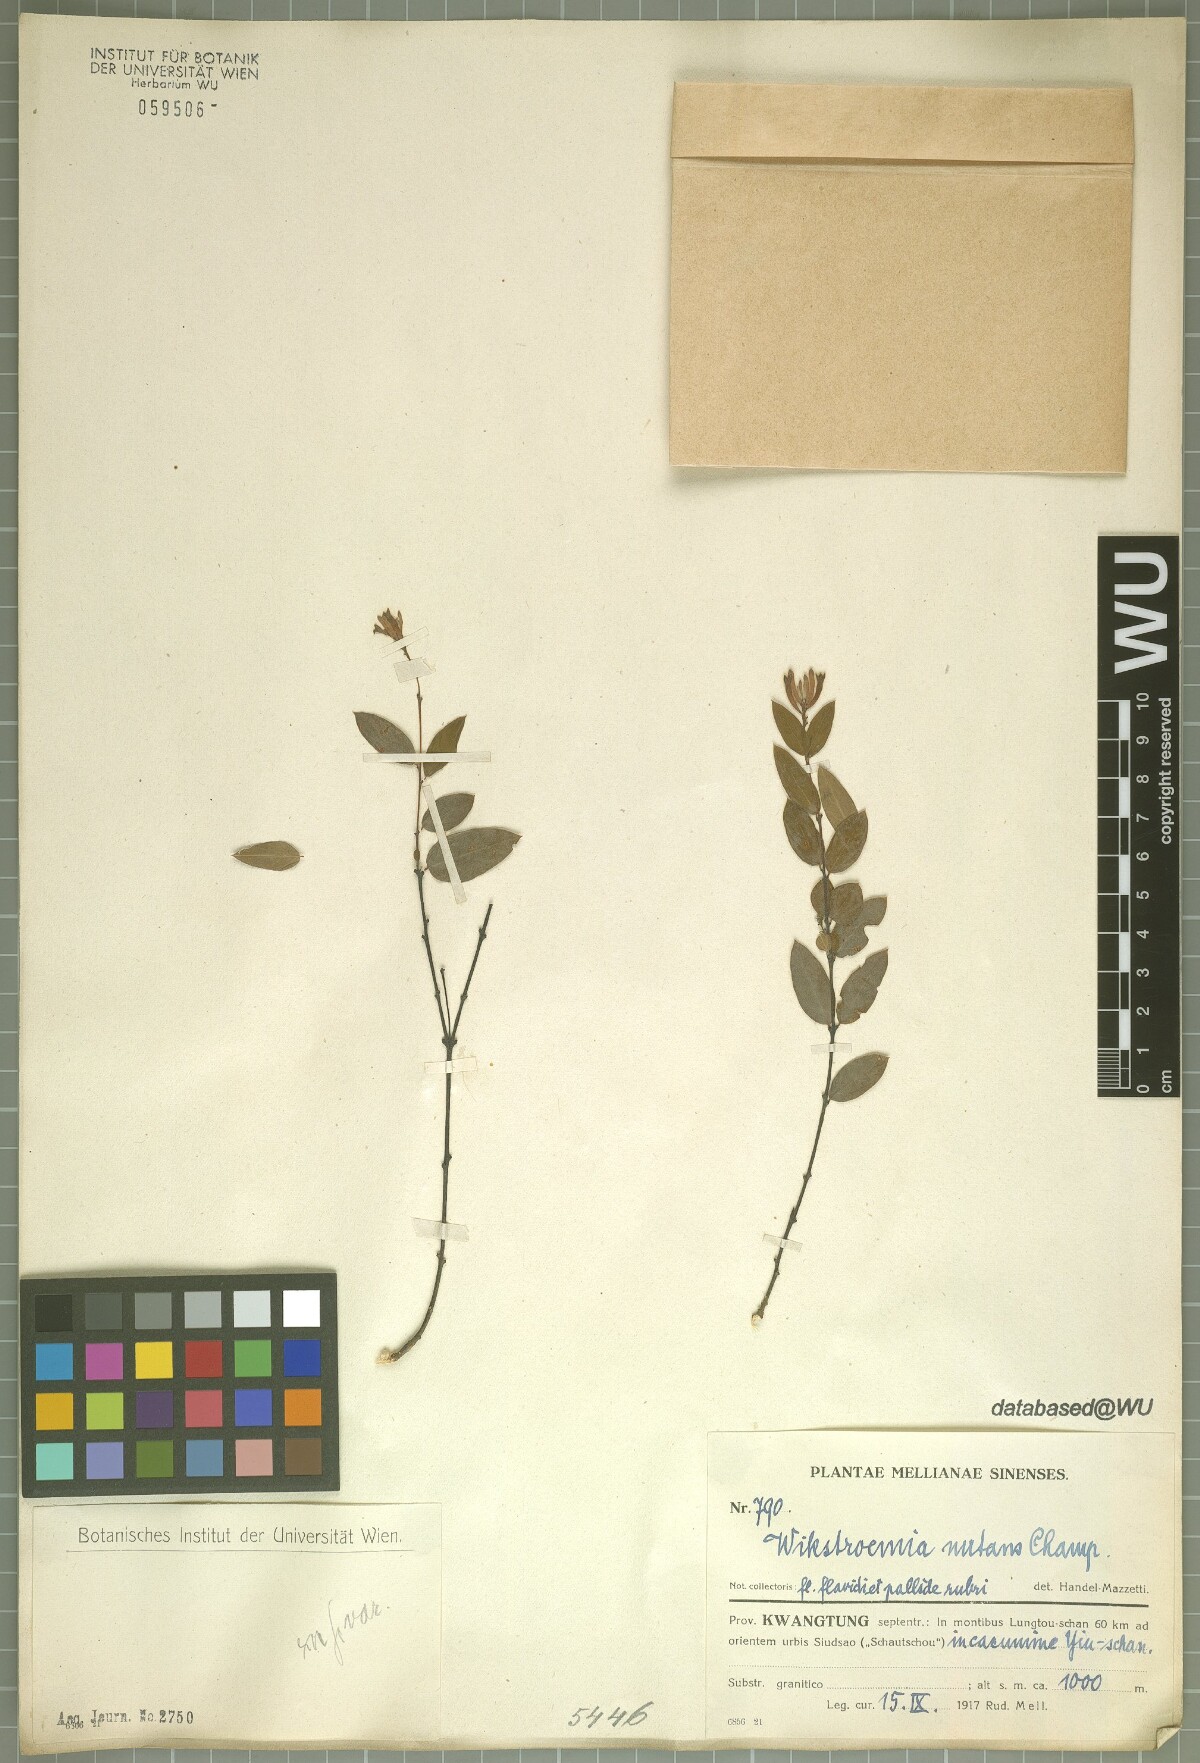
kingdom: Plantae
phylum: Tracheophyta
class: Magnoliopsida
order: Malvales
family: Thymelaeaceae
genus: Wikstroemia
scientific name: Wikstroemia nutans
